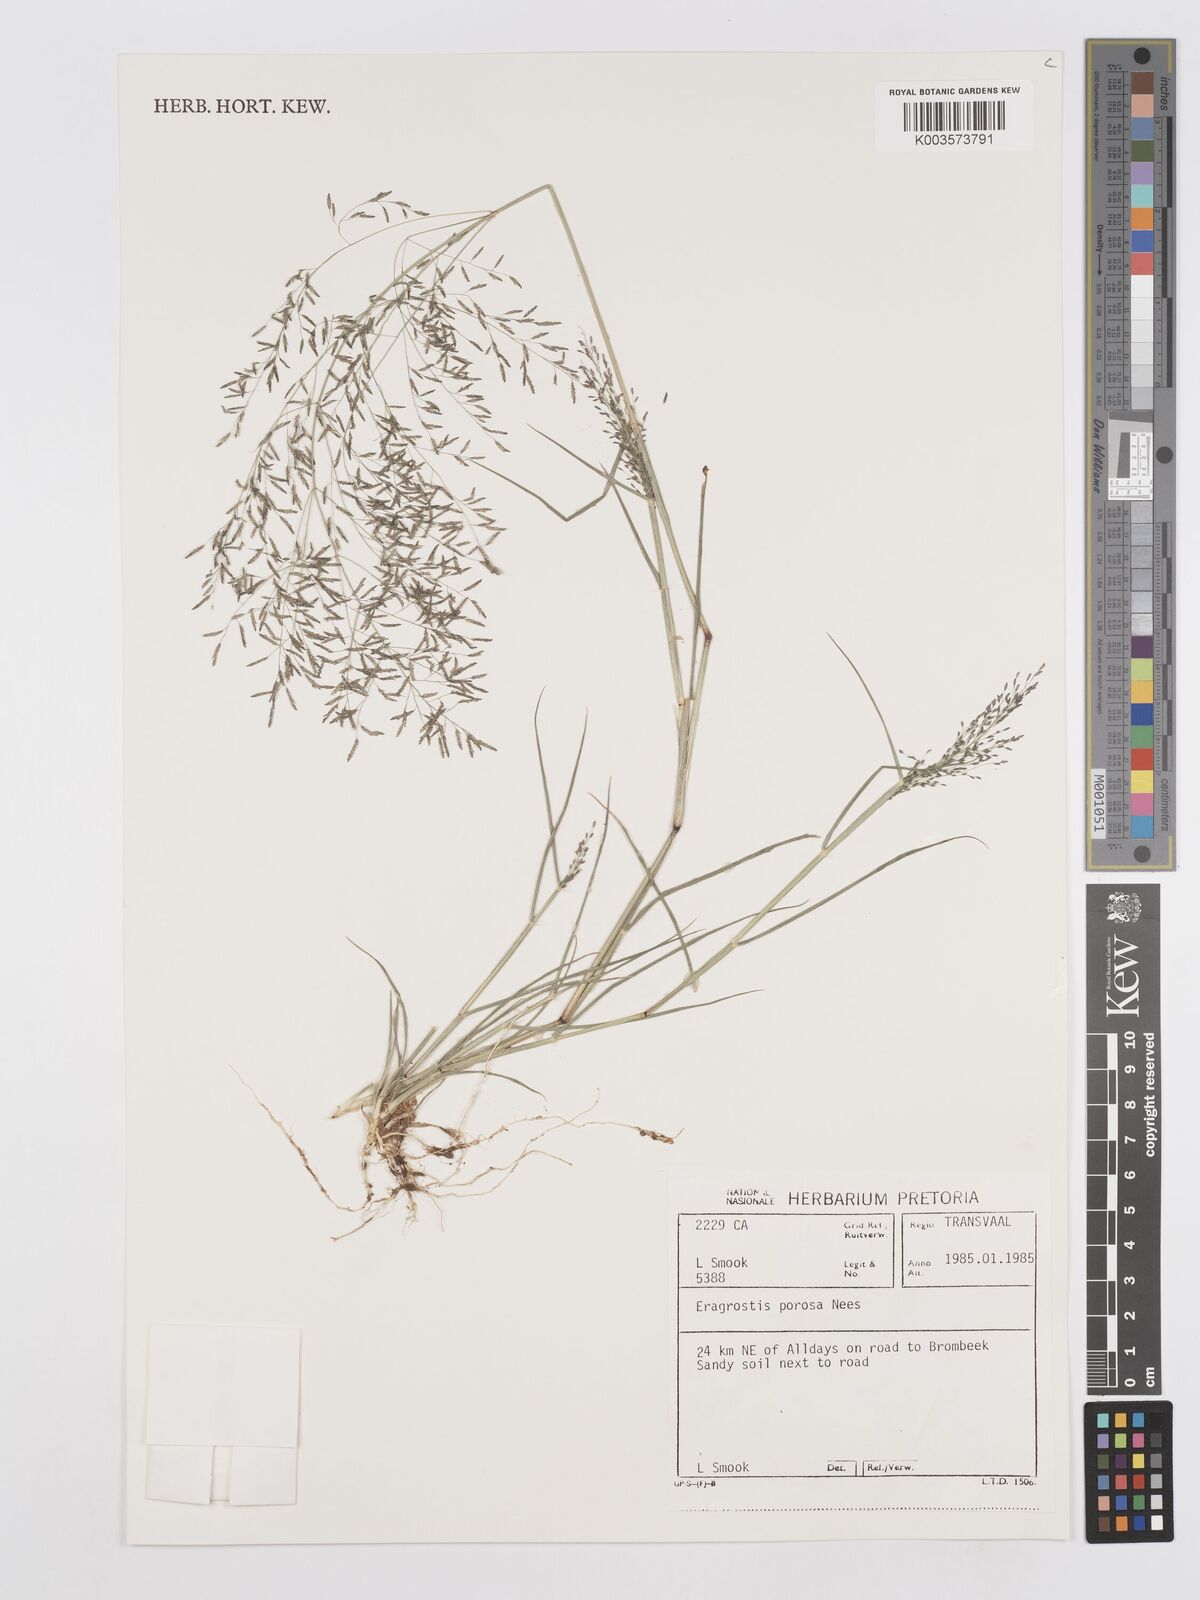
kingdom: Plantae
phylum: Tracheophyta
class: Liliopsida
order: Poales
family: Poaceae
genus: Eragrostis
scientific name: Eragrostis porosa
